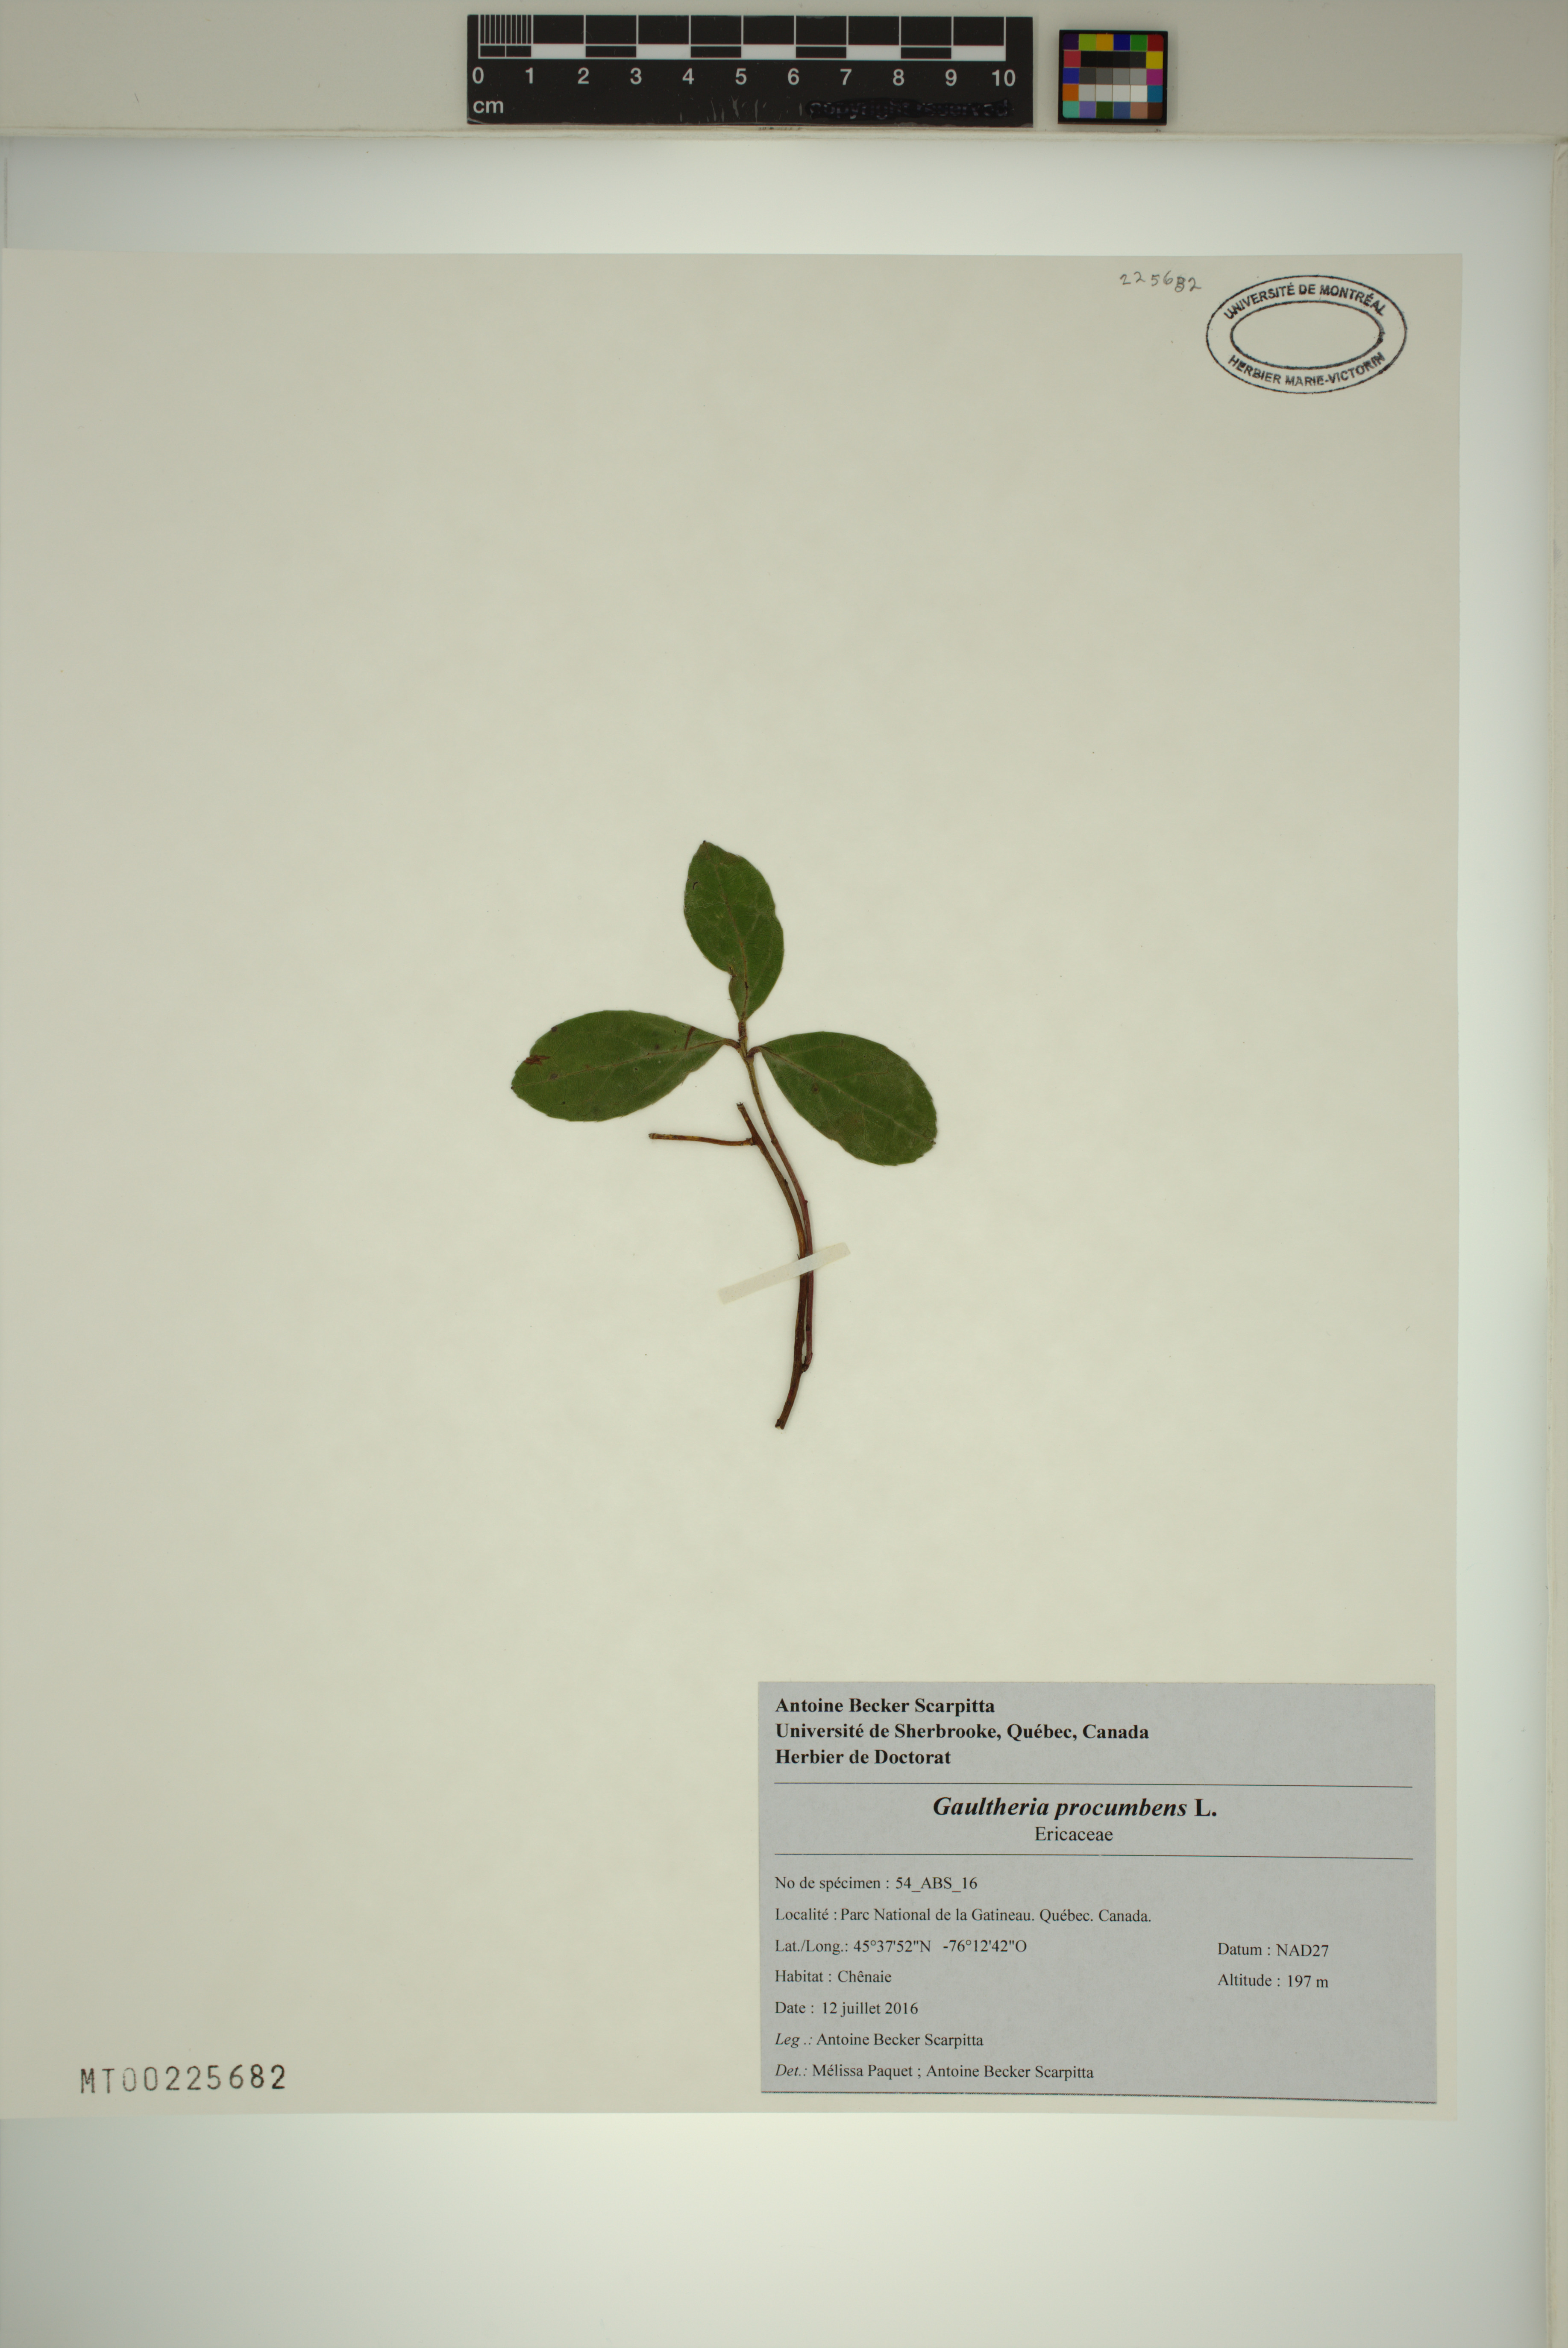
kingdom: Plantae
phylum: Tracheophyta
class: Magnoliopsida
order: Ericales
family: Ericaceae
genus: Gaultheria
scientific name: Gaultheria procumbens
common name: Checkerberry
